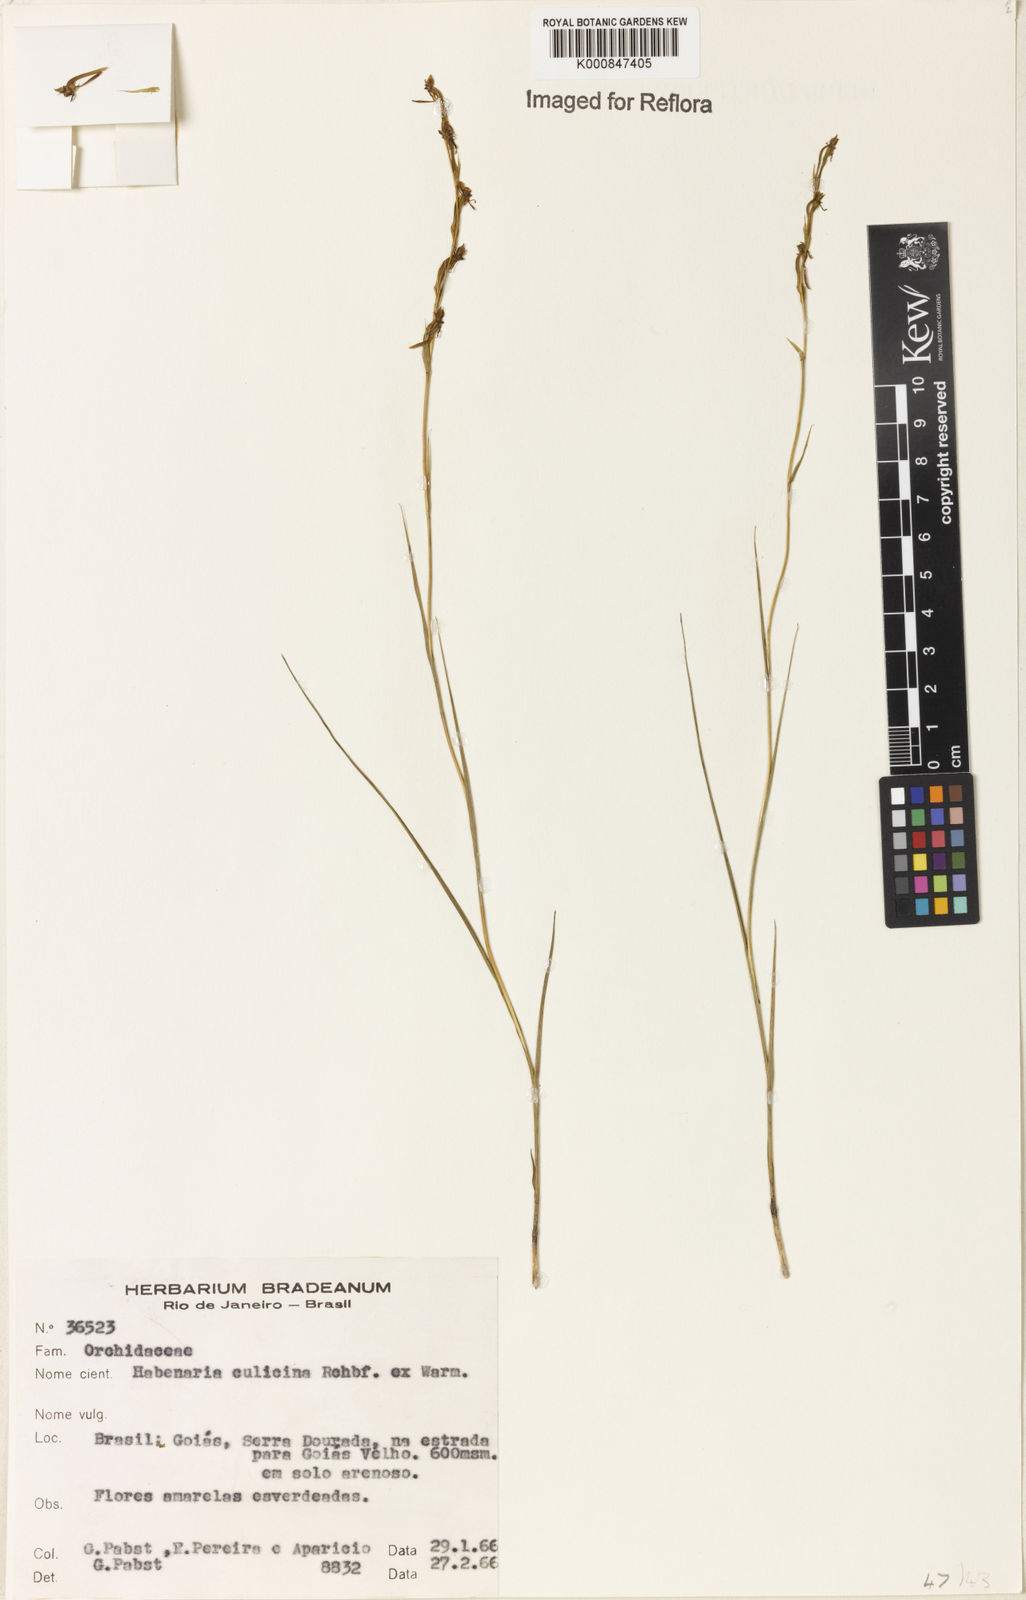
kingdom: Plantae
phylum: Tracheophyta
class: Liliopsida
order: Asparagales
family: Orchidaceae
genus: Habenaria
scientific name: Habenaria culicina
